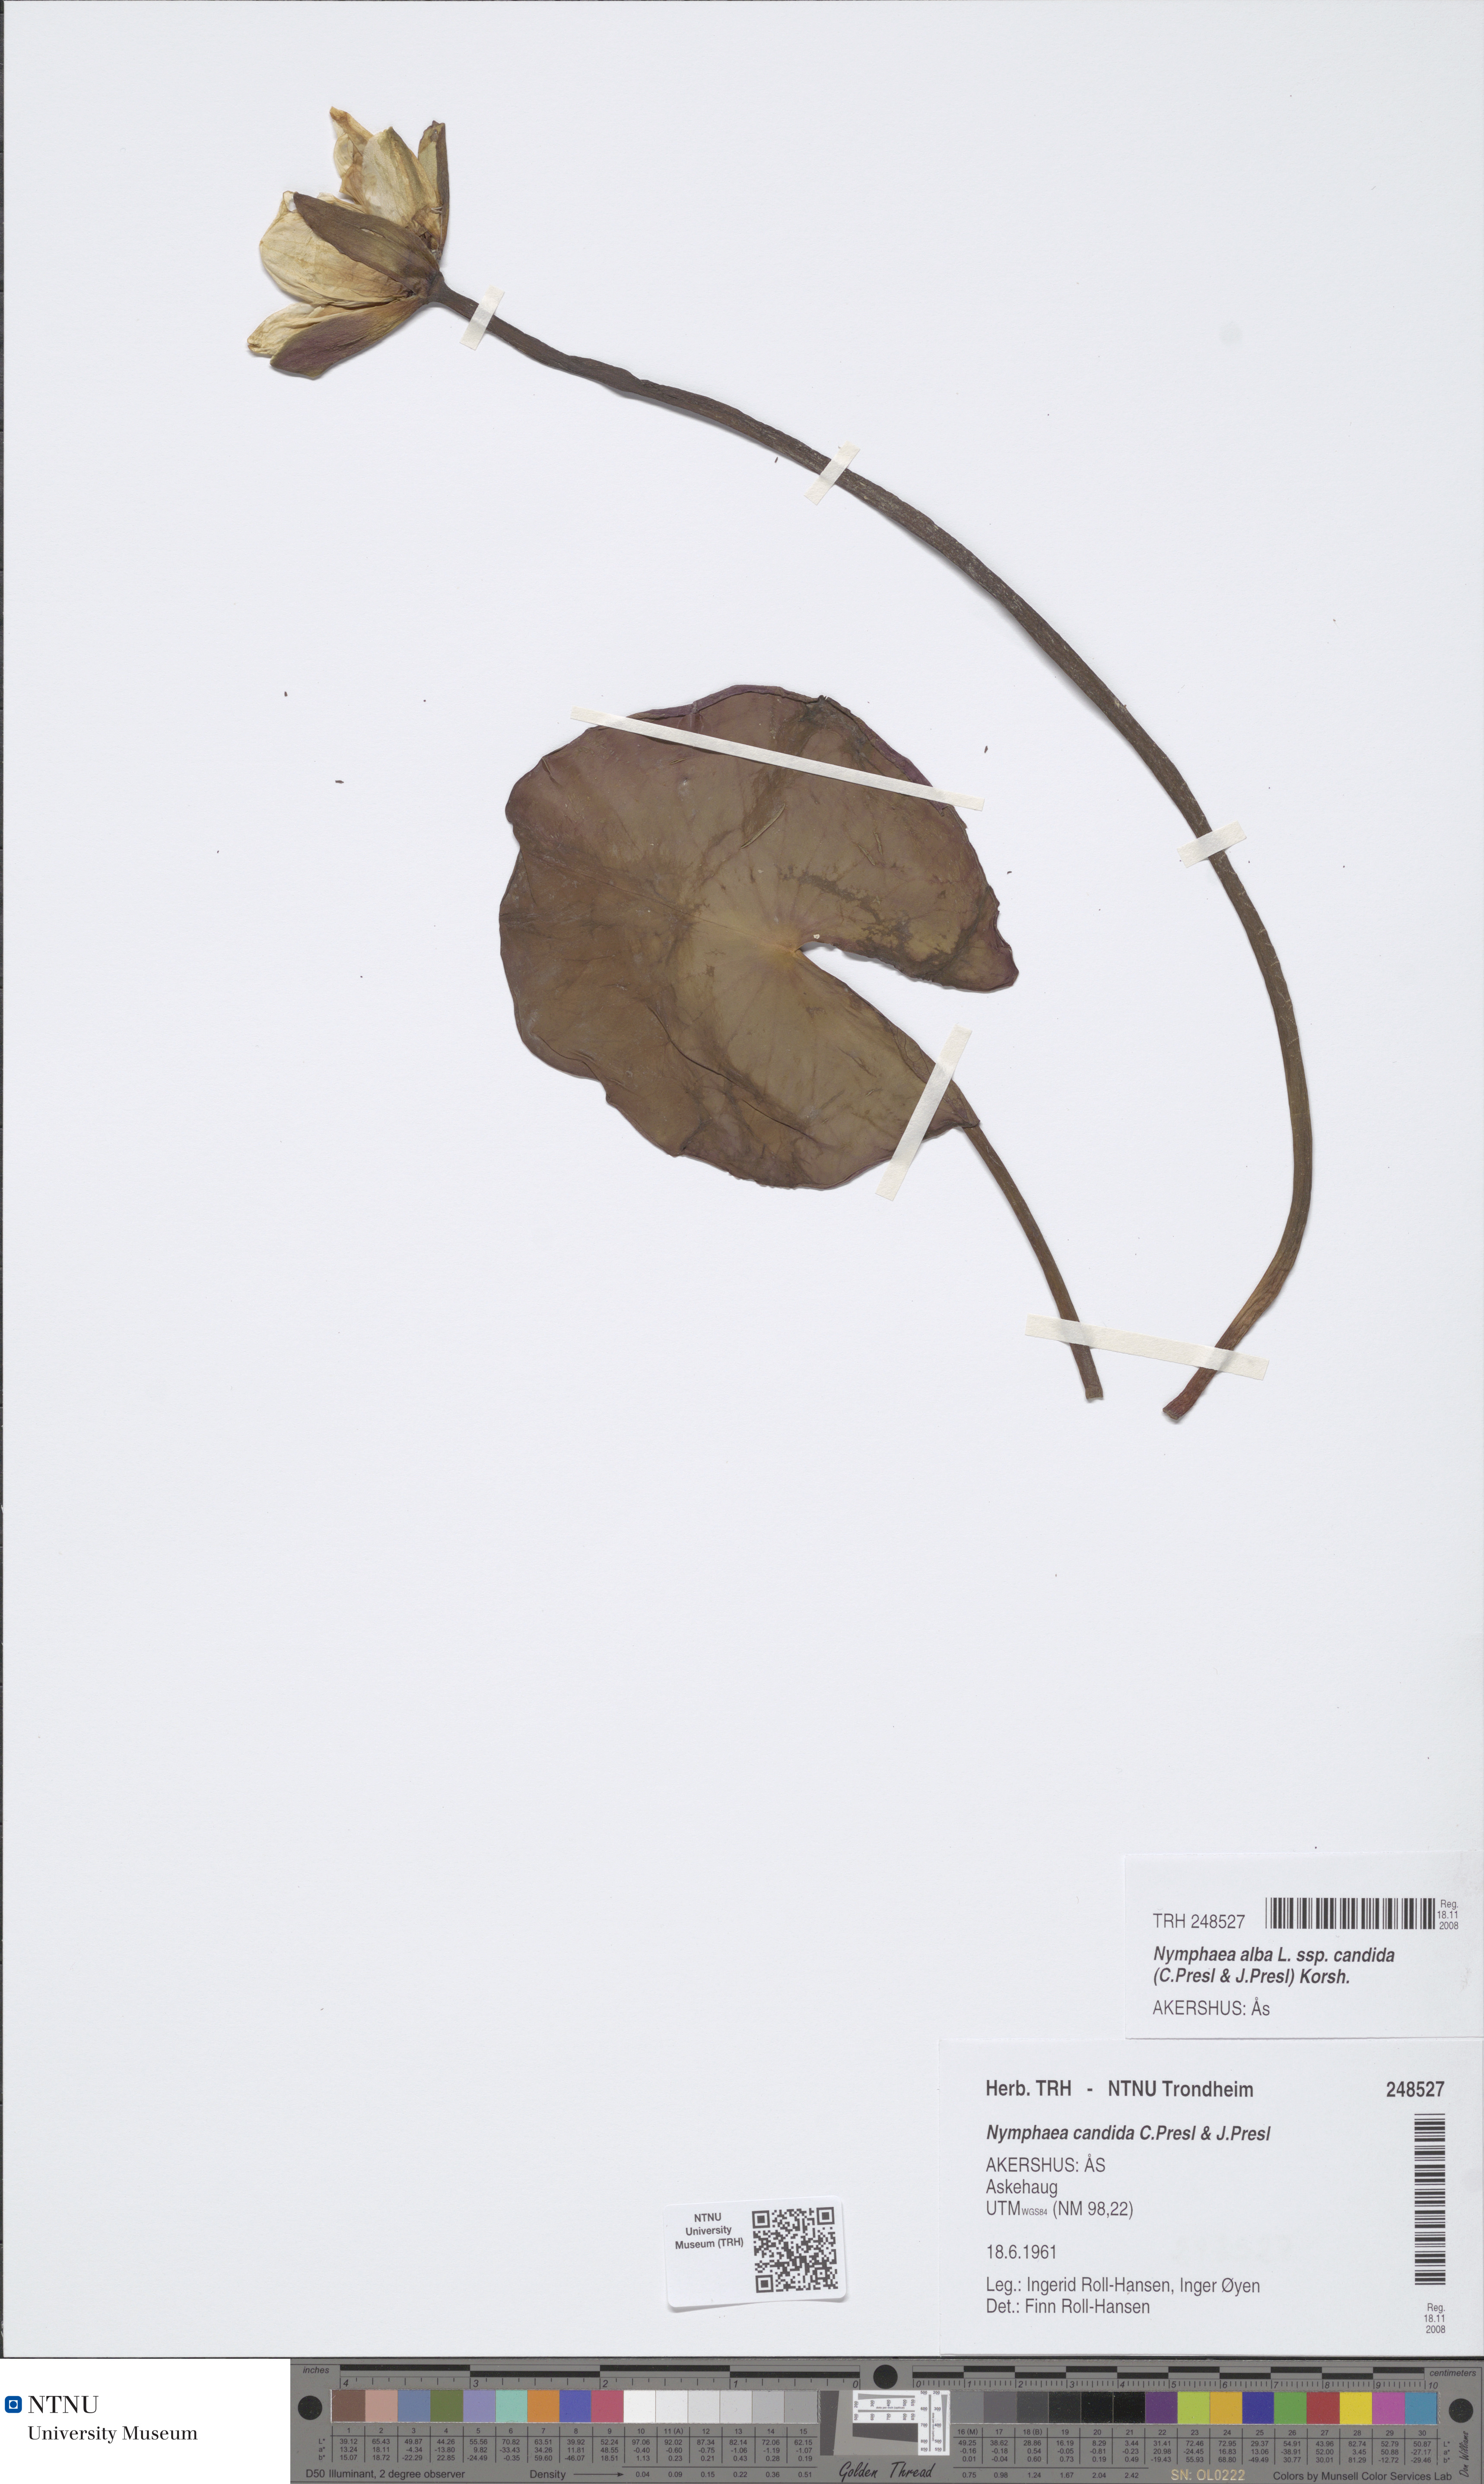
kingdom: Plantae
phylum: Tracheophyta
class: Magnoliopsida
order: Nymphaeales
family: Nymphaeaceae
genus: Nymphaea
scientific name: Nymphaea candida
